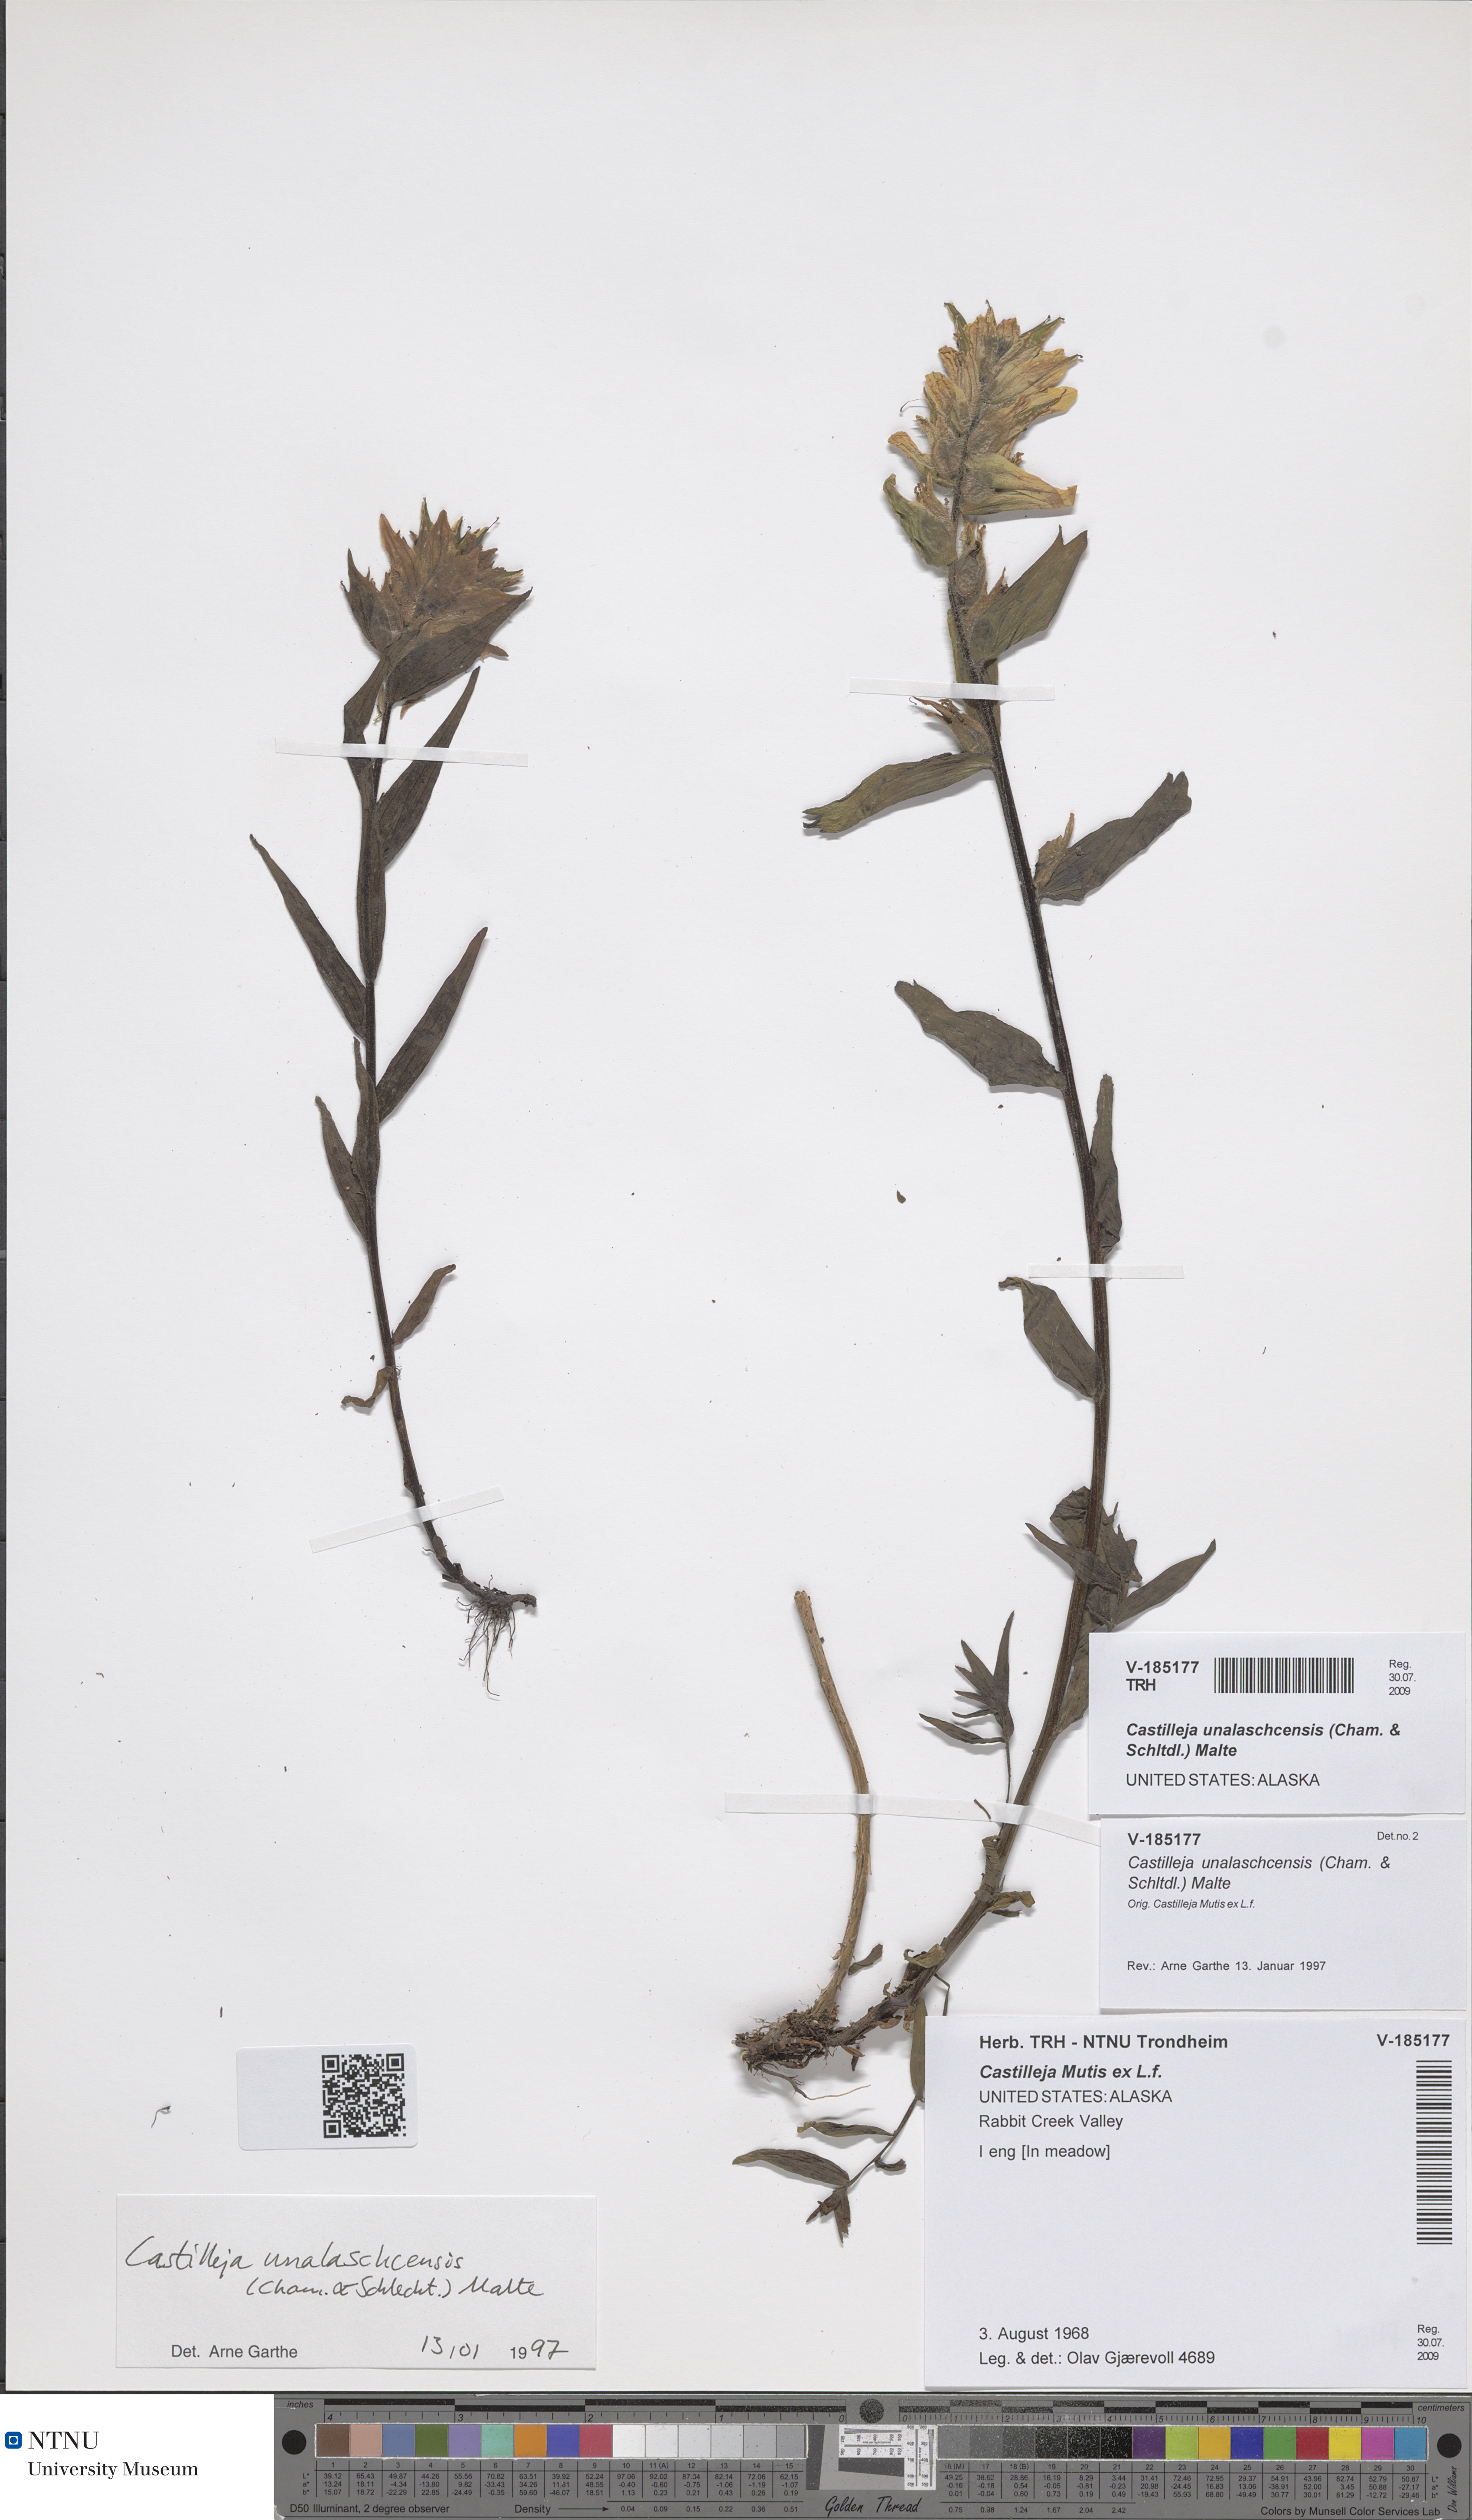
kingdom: Plantae
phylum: Tracheophyta
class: Magnoliopsida
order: Lamiales
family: Orobanchaceae
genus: Castilleja
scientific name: Castilleja unalaschcensis
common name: Unalaska paintbrush
